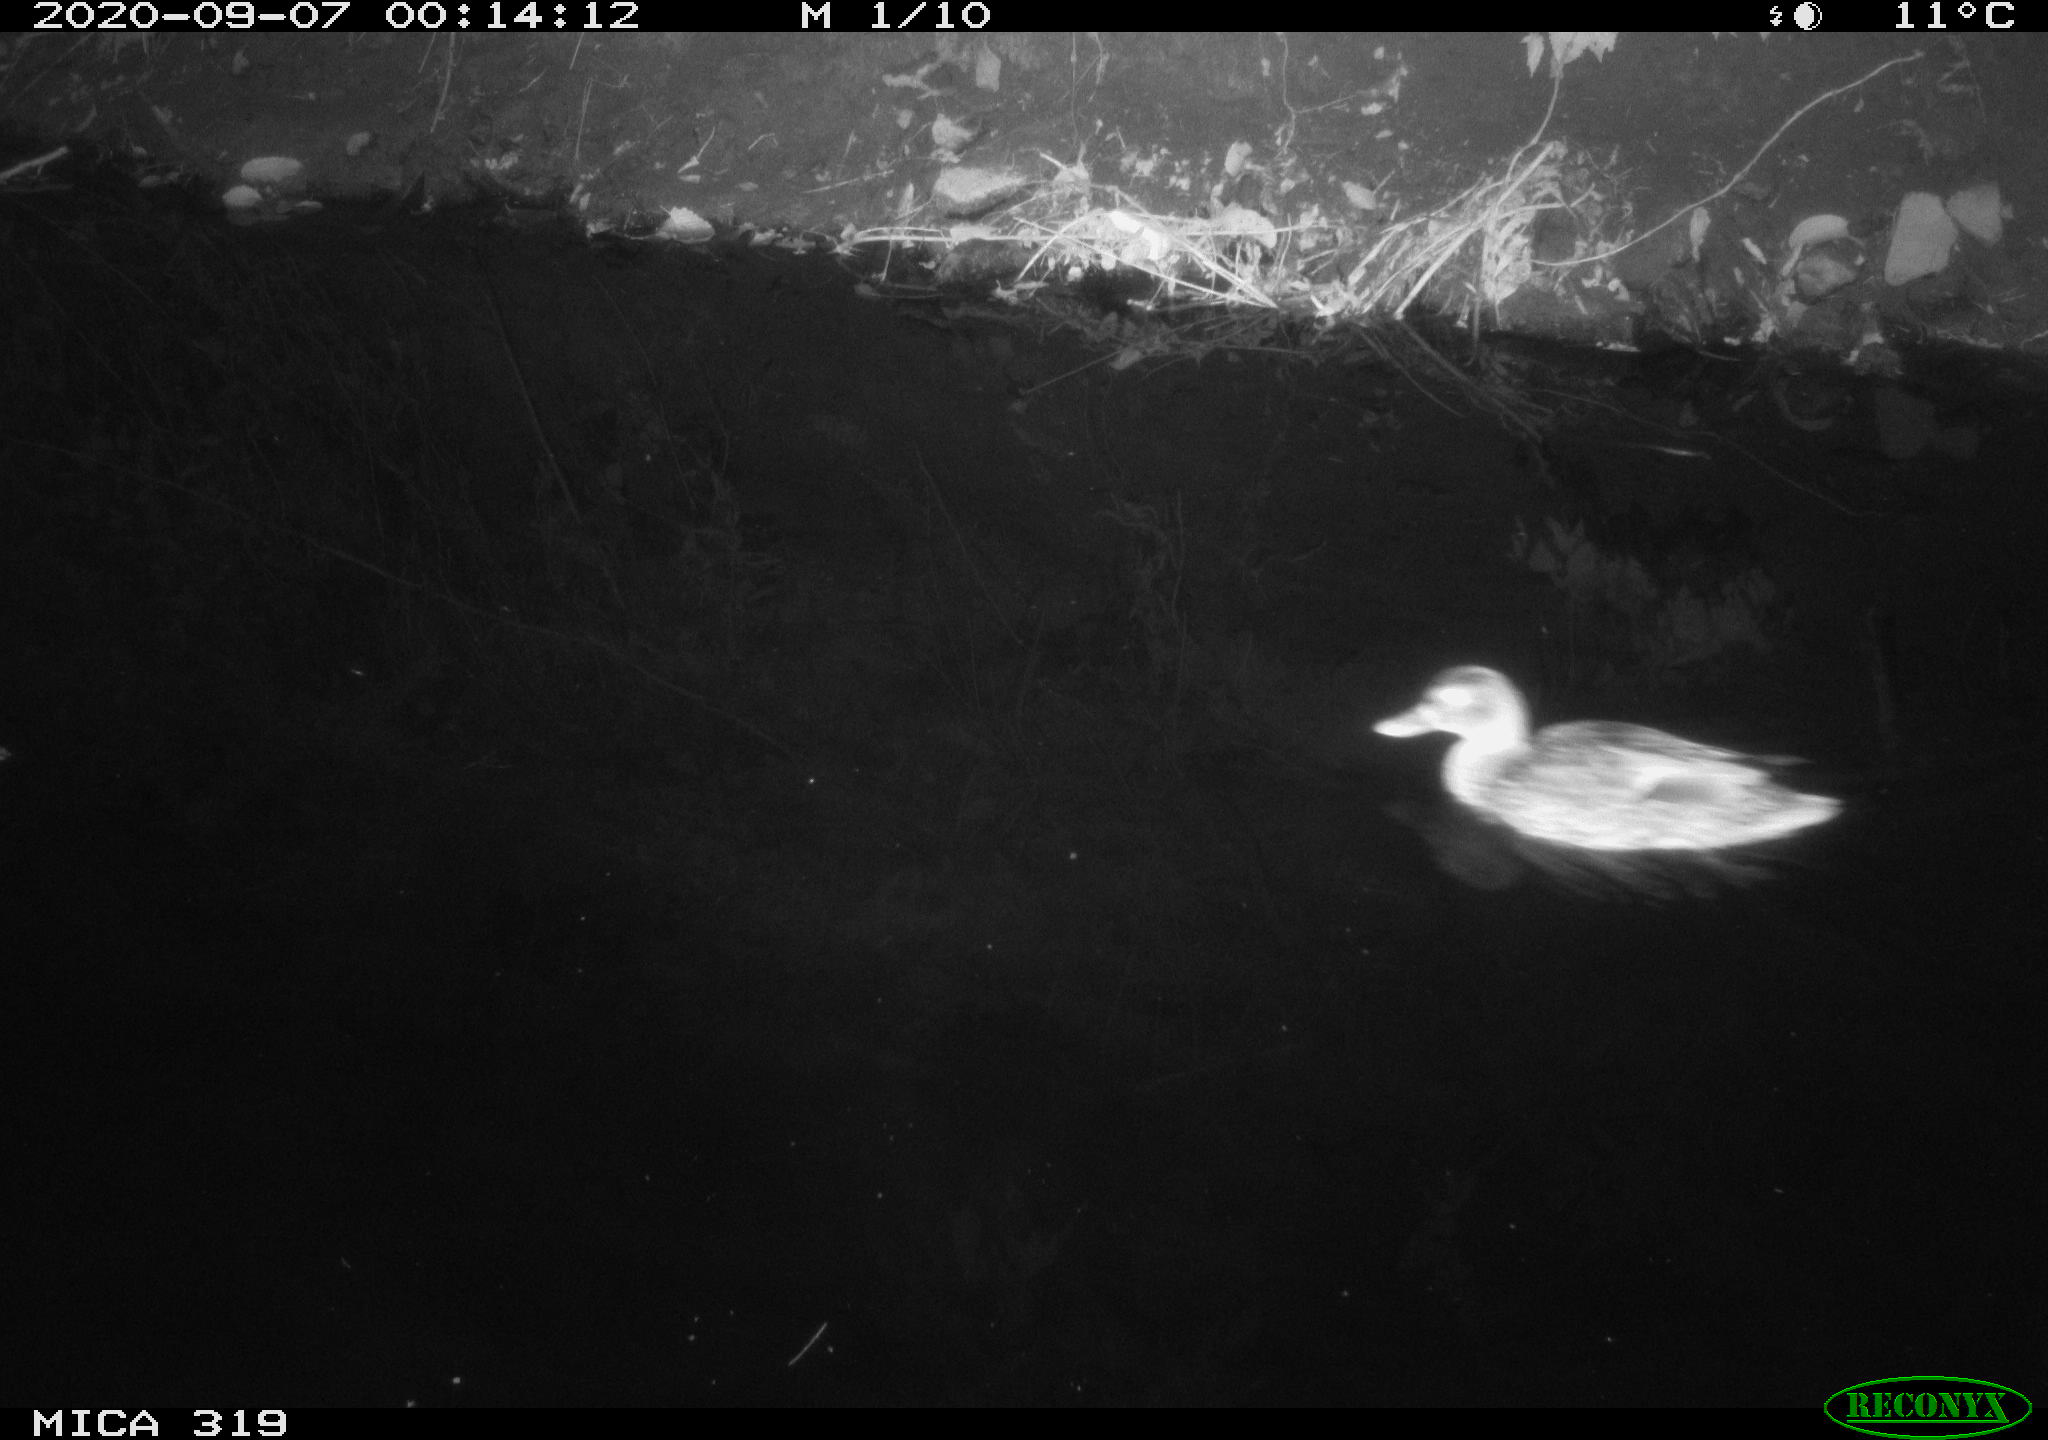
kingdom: Animalia
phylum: Chordata
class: Aves
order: Anseriformes
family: Anatidae
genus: Anas
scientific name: Anas platyrhynchos
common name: Mallard
